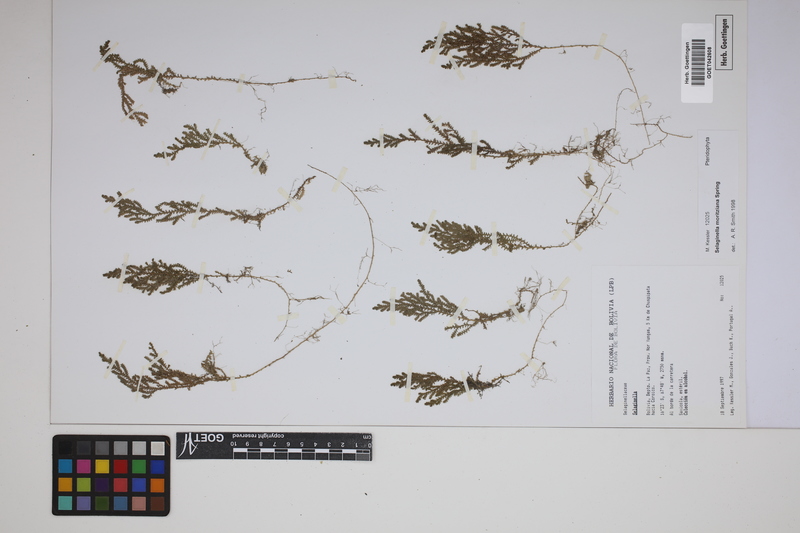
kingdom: Plantae
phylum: Tracheophyta
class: Lycopodiopsida
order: Selaginellales
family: Selaginellaceae
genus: Selaginella
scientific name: Selaginella moritziana
